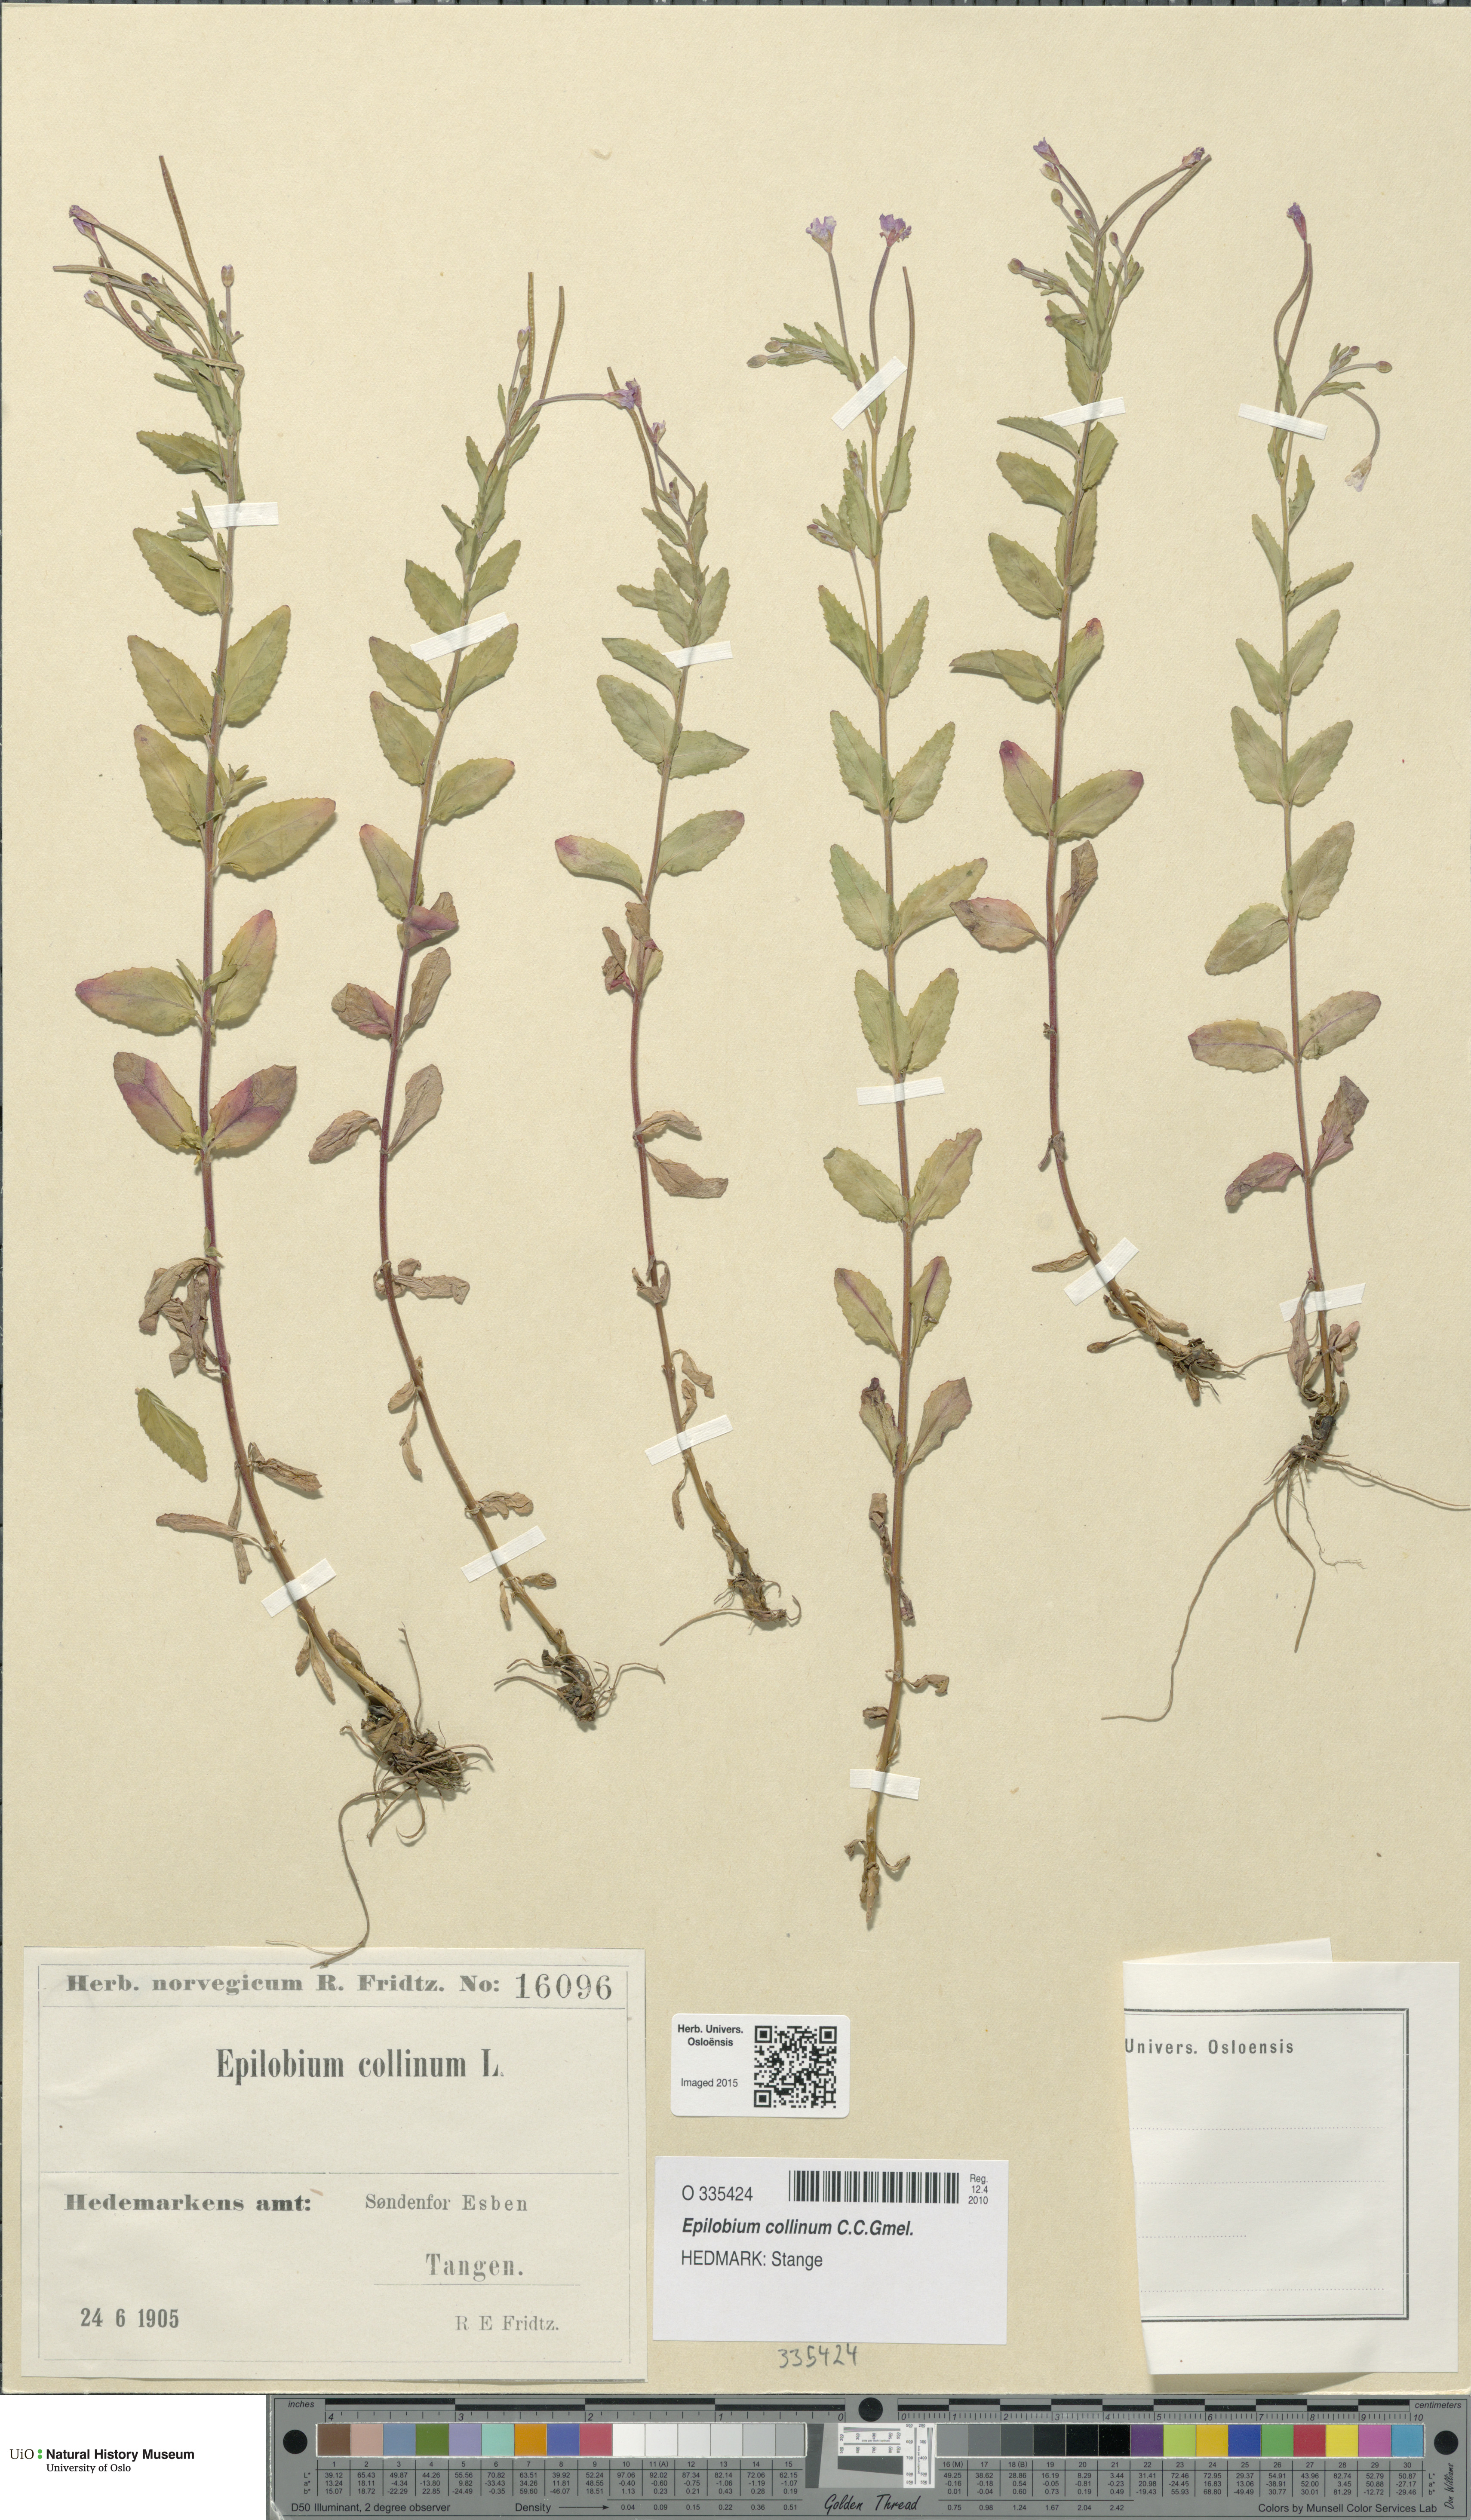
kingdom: Plantae
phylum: Tracheophyta
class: Magnoliopsida
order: Myrtales
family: Onagraceae
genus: Epilobium
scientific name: Epilobium collinum
